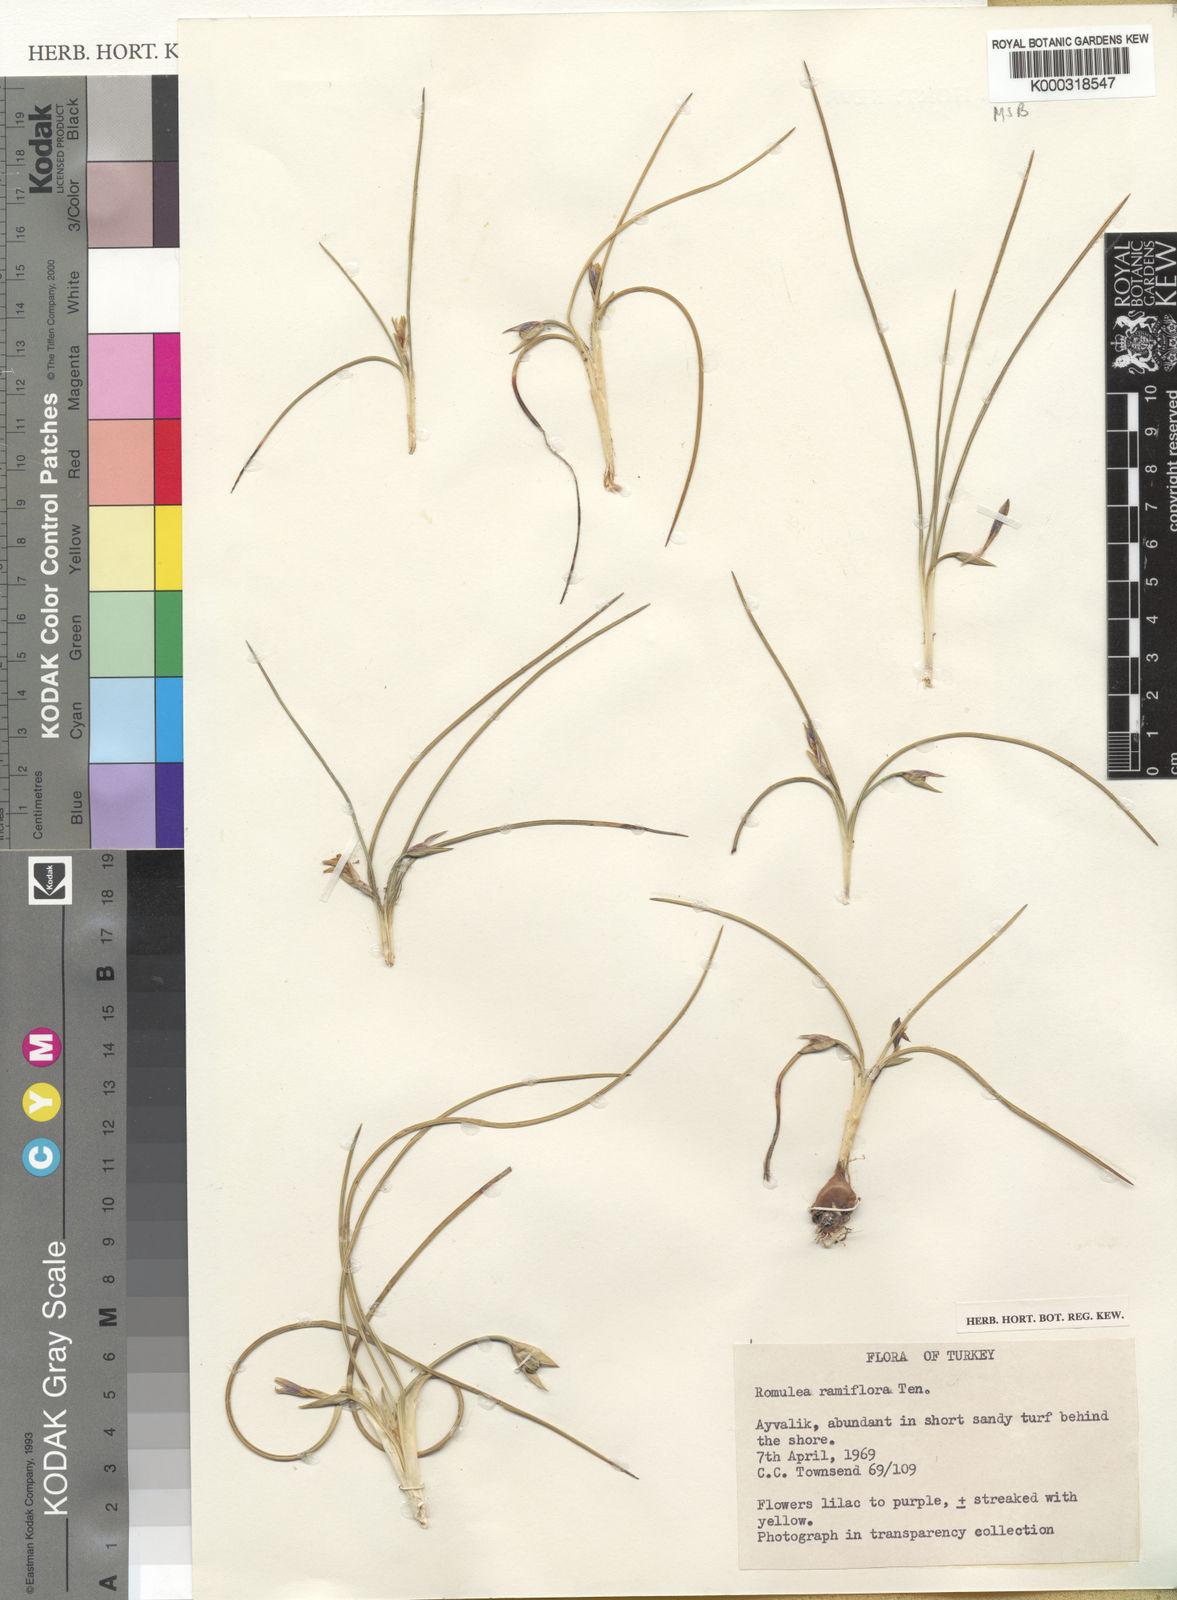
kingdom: Plantae
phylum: Tracheophyta
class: Liliopsida
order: Asparagales
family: Iridaceae
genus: Romulea
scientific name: Romulea ramiflora
